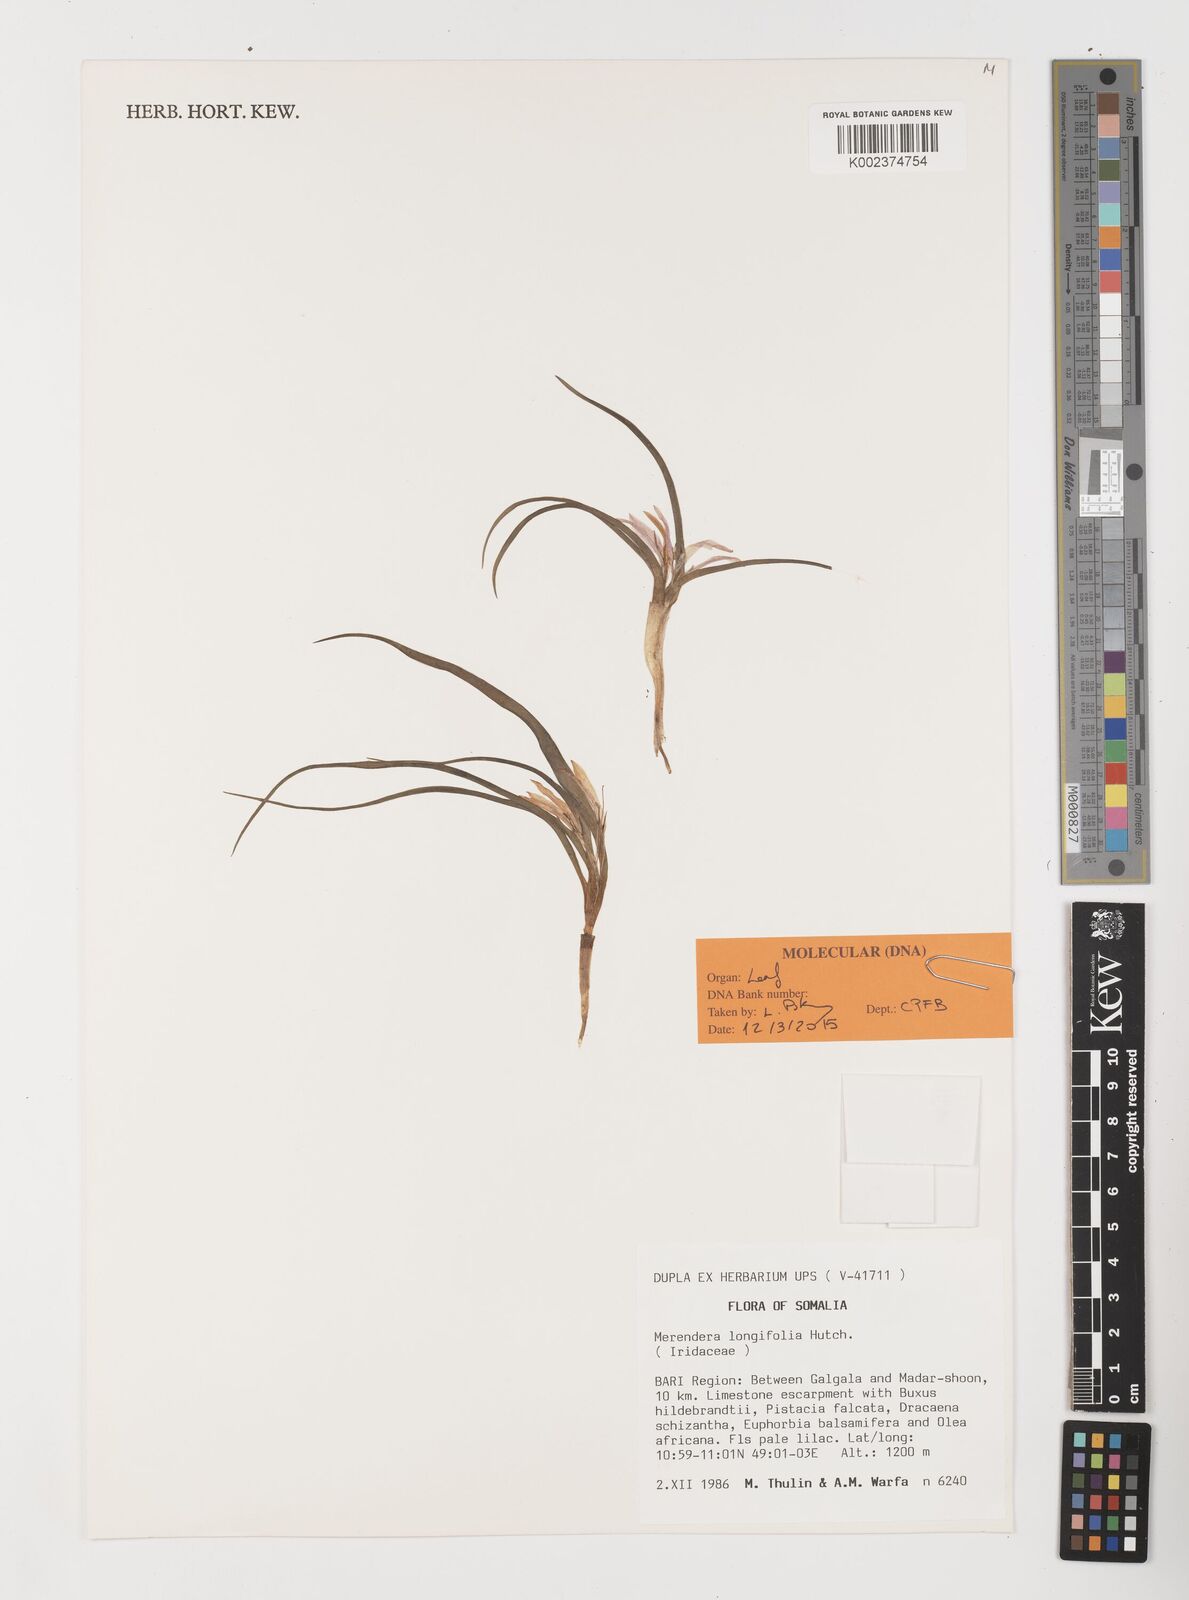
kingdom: Plantae
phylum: Tracheophyta
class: Liliopsida
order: Liliales
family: Colchicaceae
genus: Colchicum
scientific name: Colchicum longifolium
